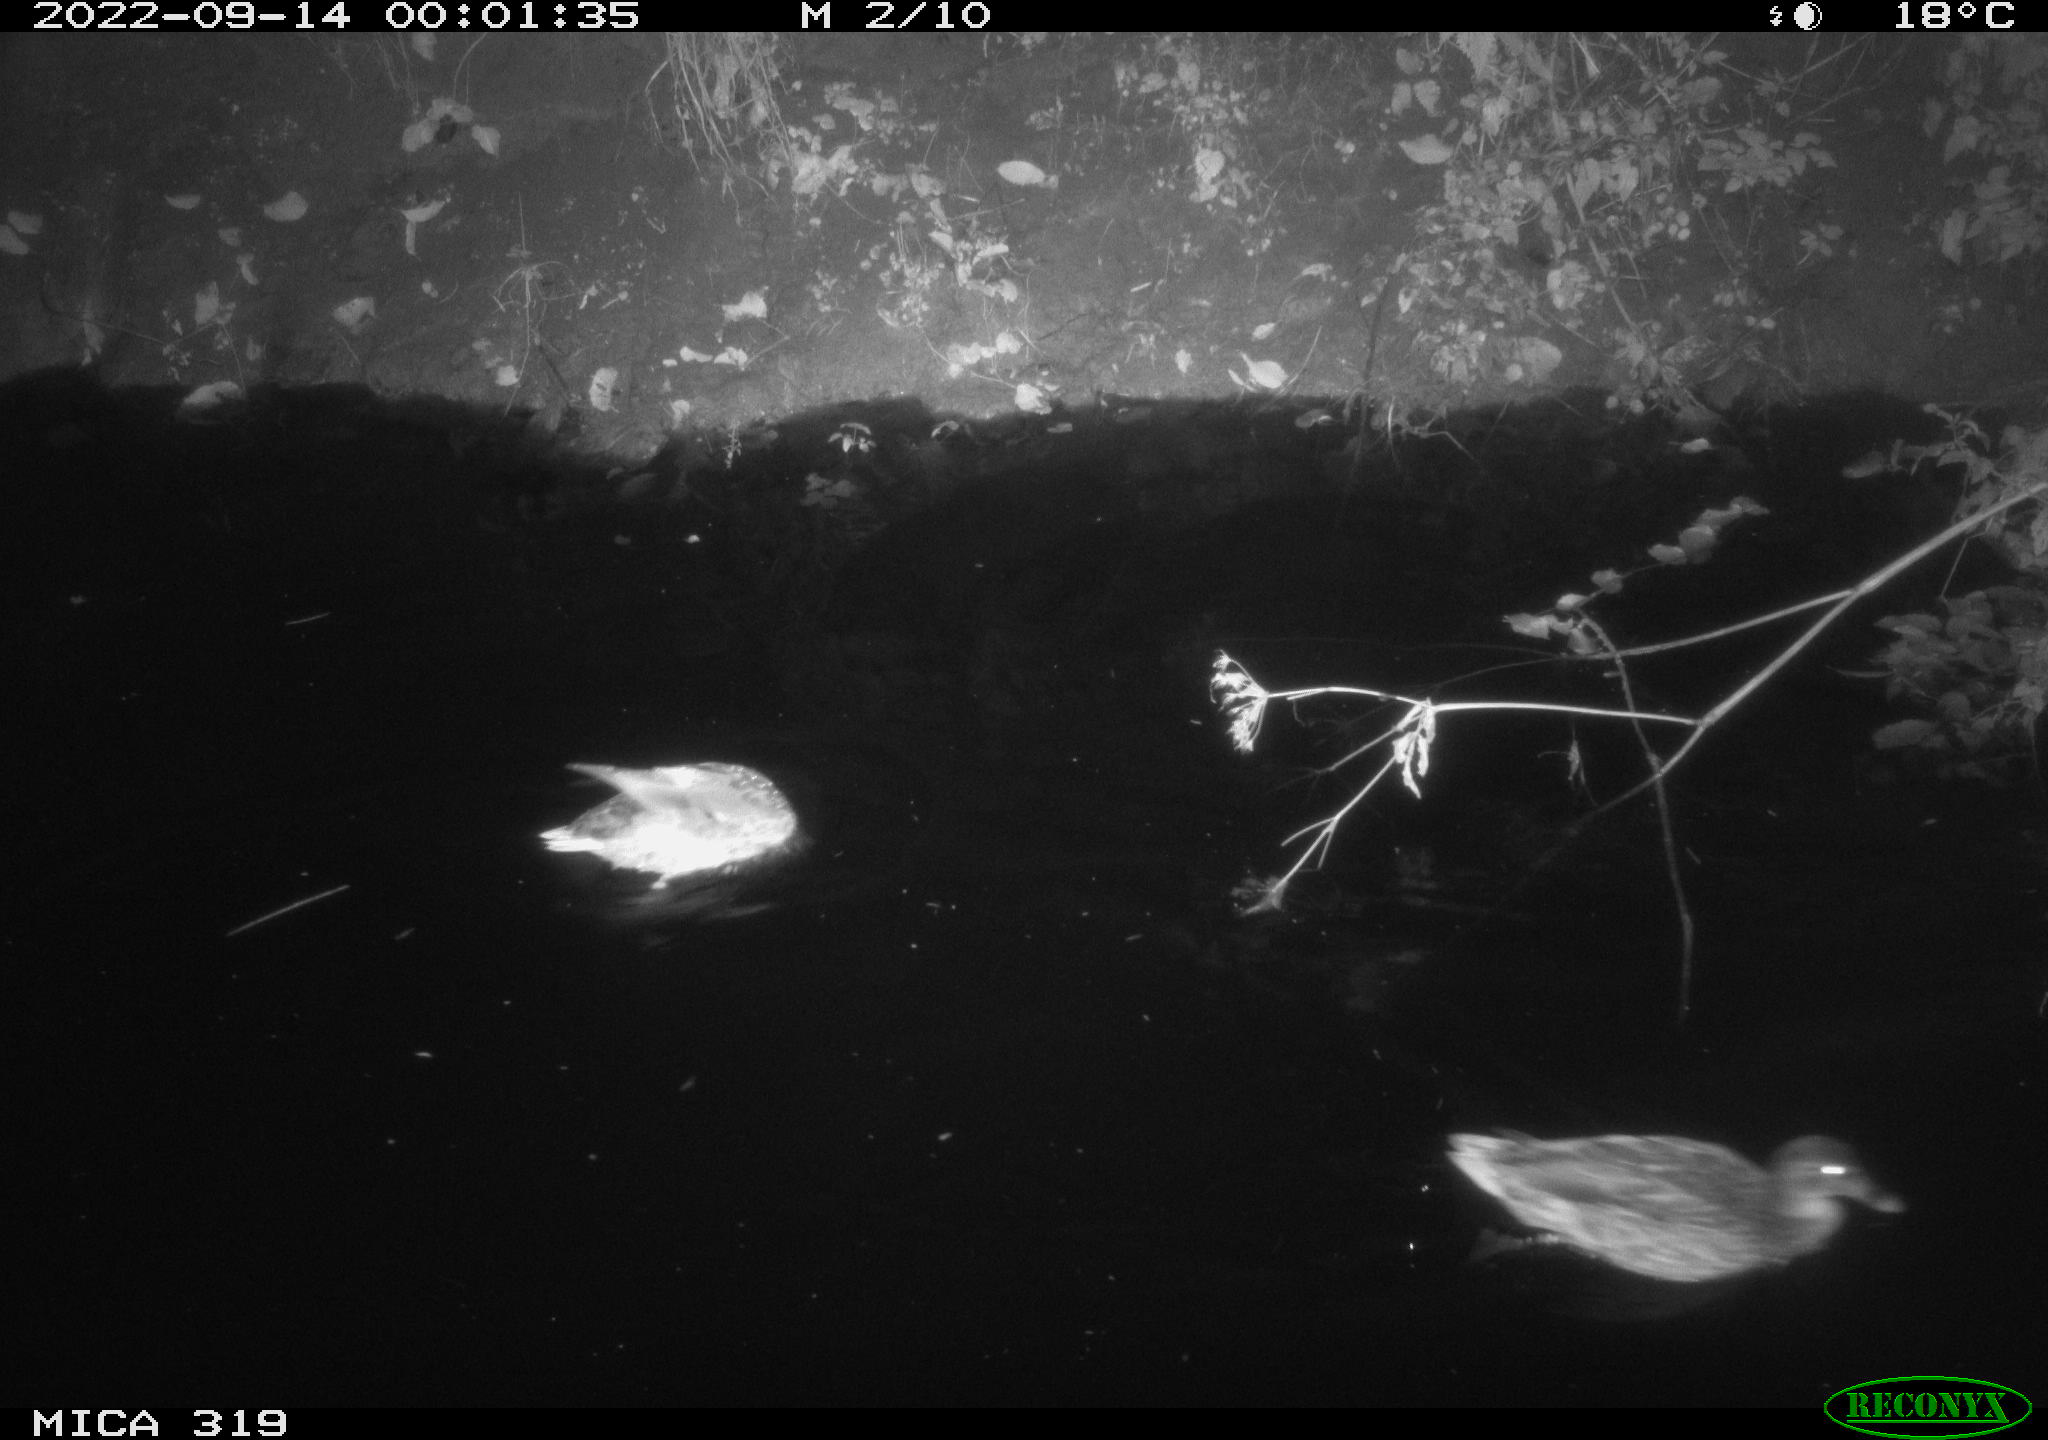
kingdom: Animalia
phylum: Chordata
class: Aves
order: Anseriformes
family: Anatidae
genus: Anas
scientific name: Anas
